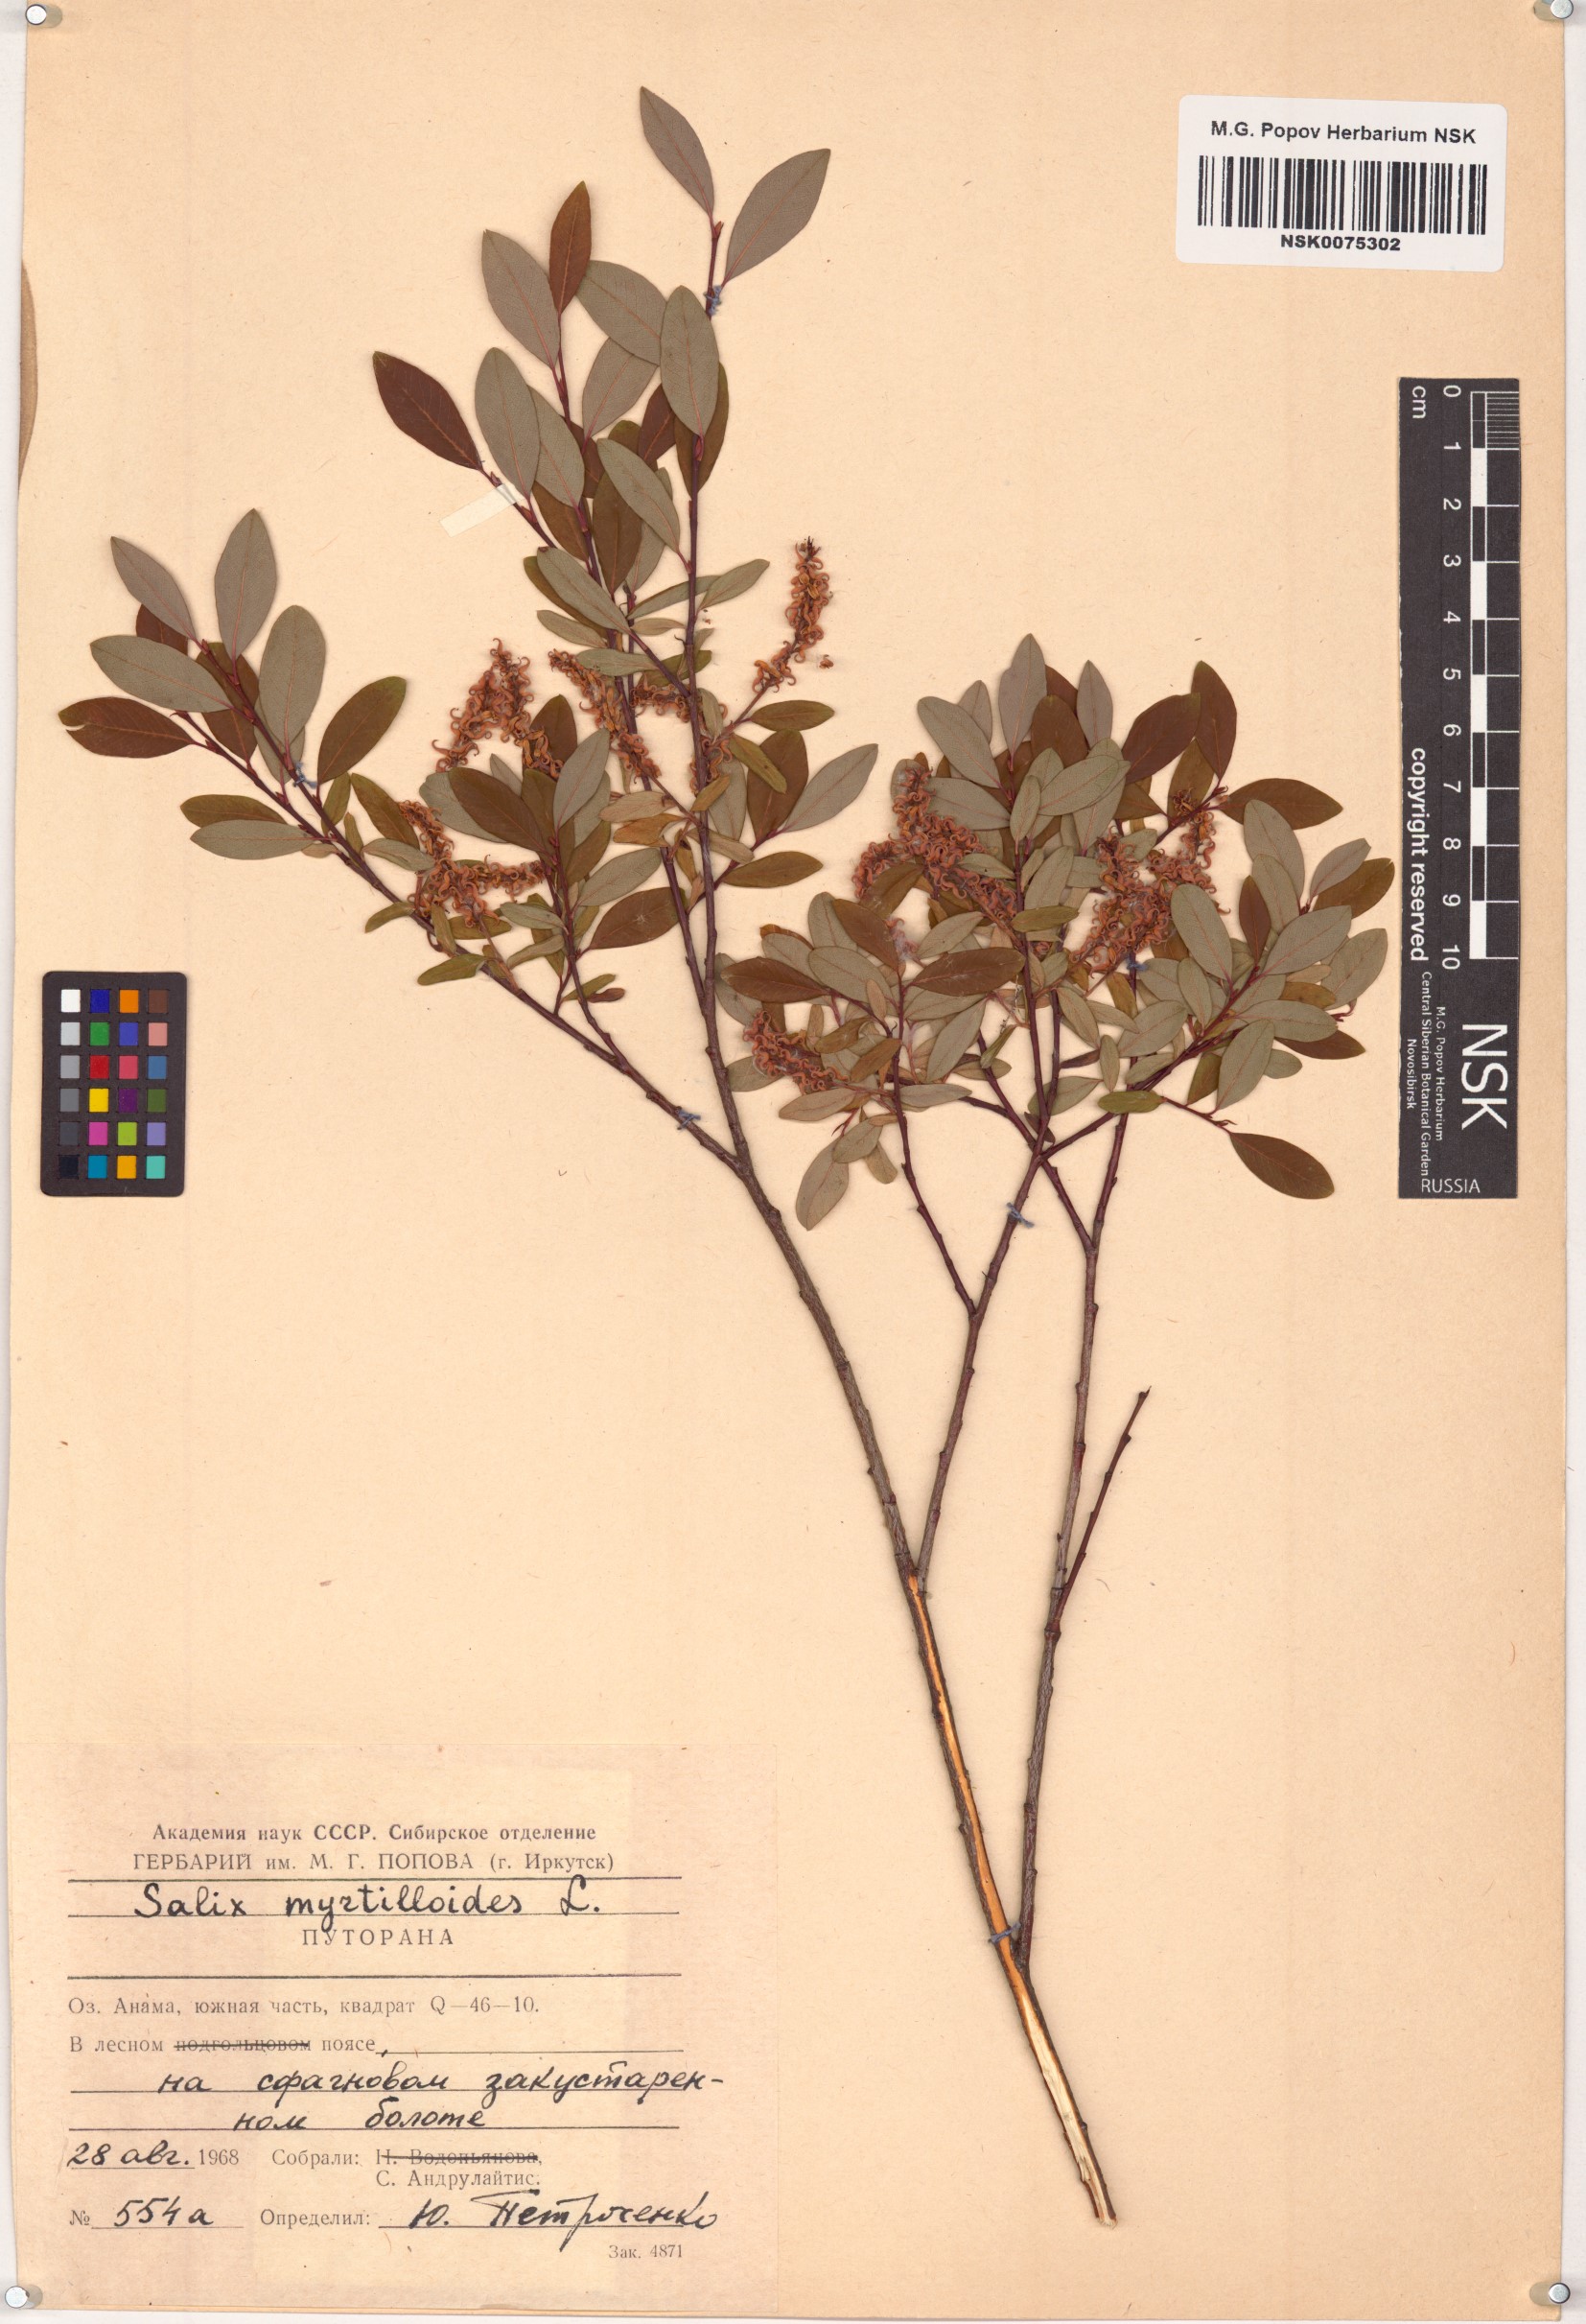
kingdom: Plantae
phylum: Tracheophyta
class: Magnoliopsida
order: Malpighiales
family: Salicaceae
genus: Salix
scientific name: Salix myrtilloides
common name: Myrtle-leaved willow
